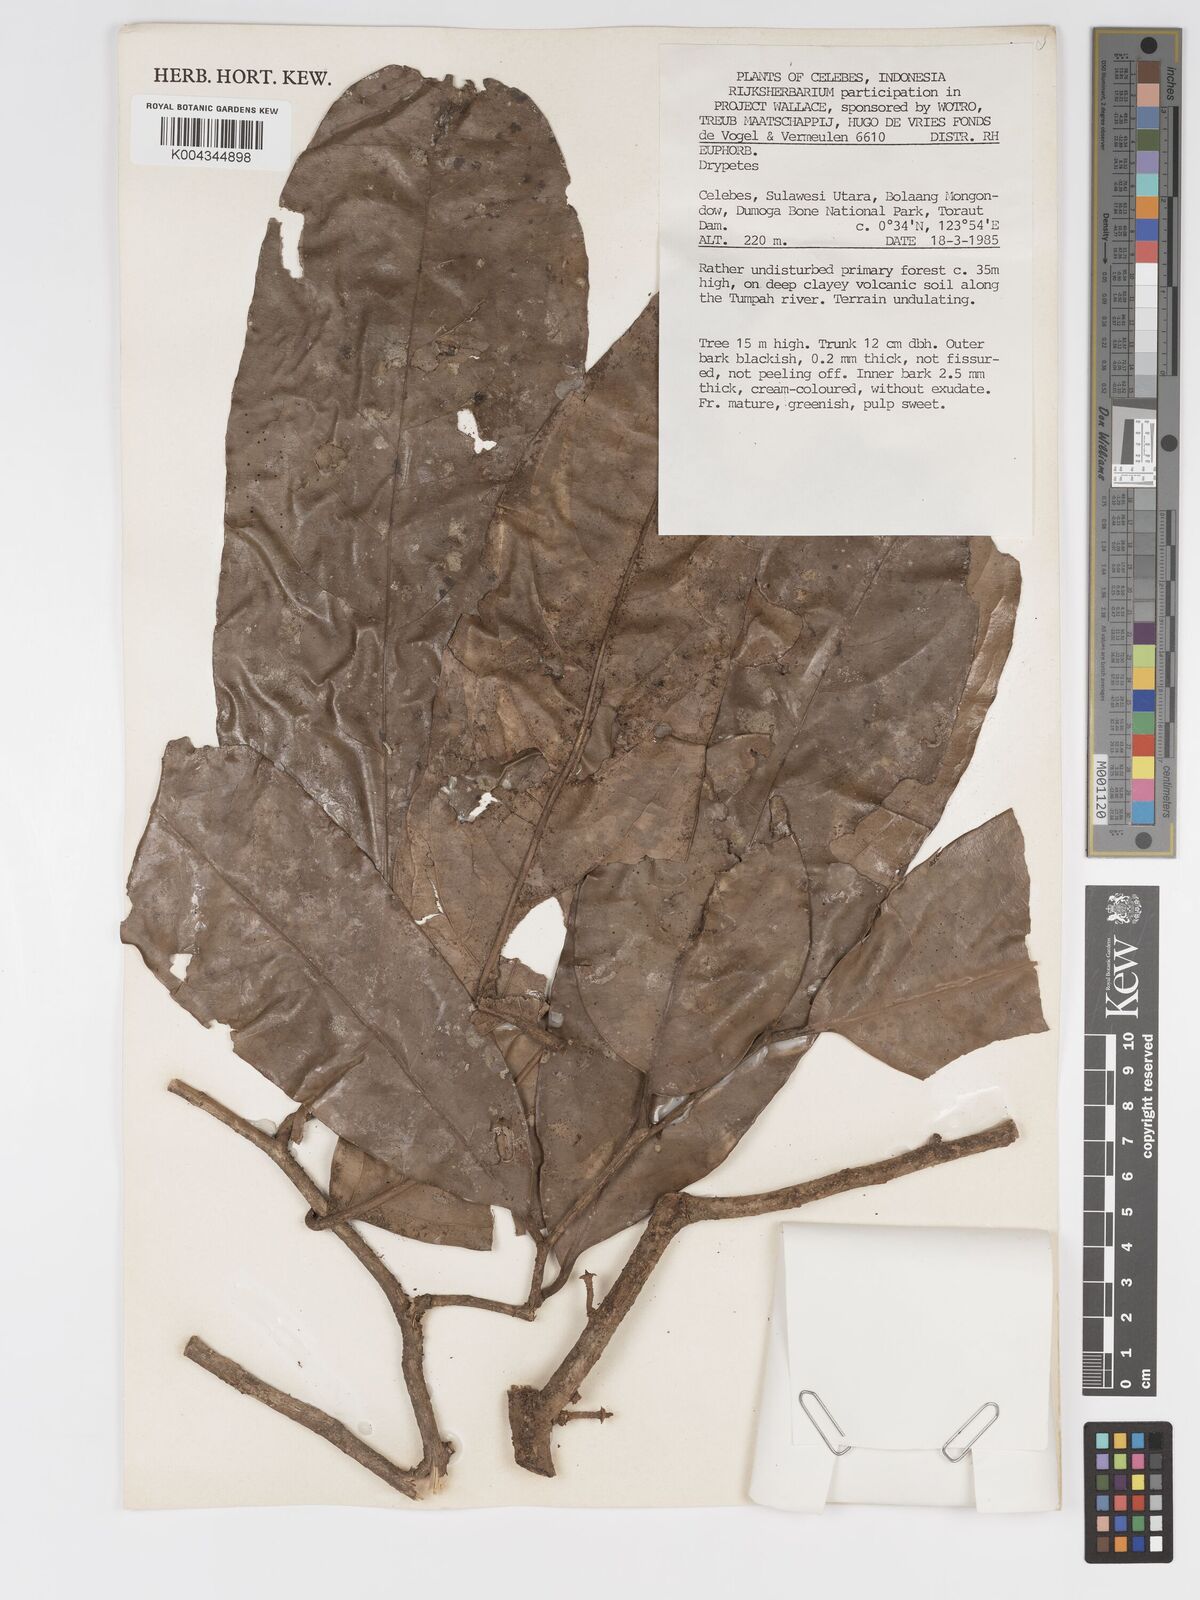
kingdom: Plantae
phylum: Tracheophyta
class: Magnoliopsida
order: Malpighiales
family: Putranjivaceae
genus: Drypetes
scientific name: Drypetes
